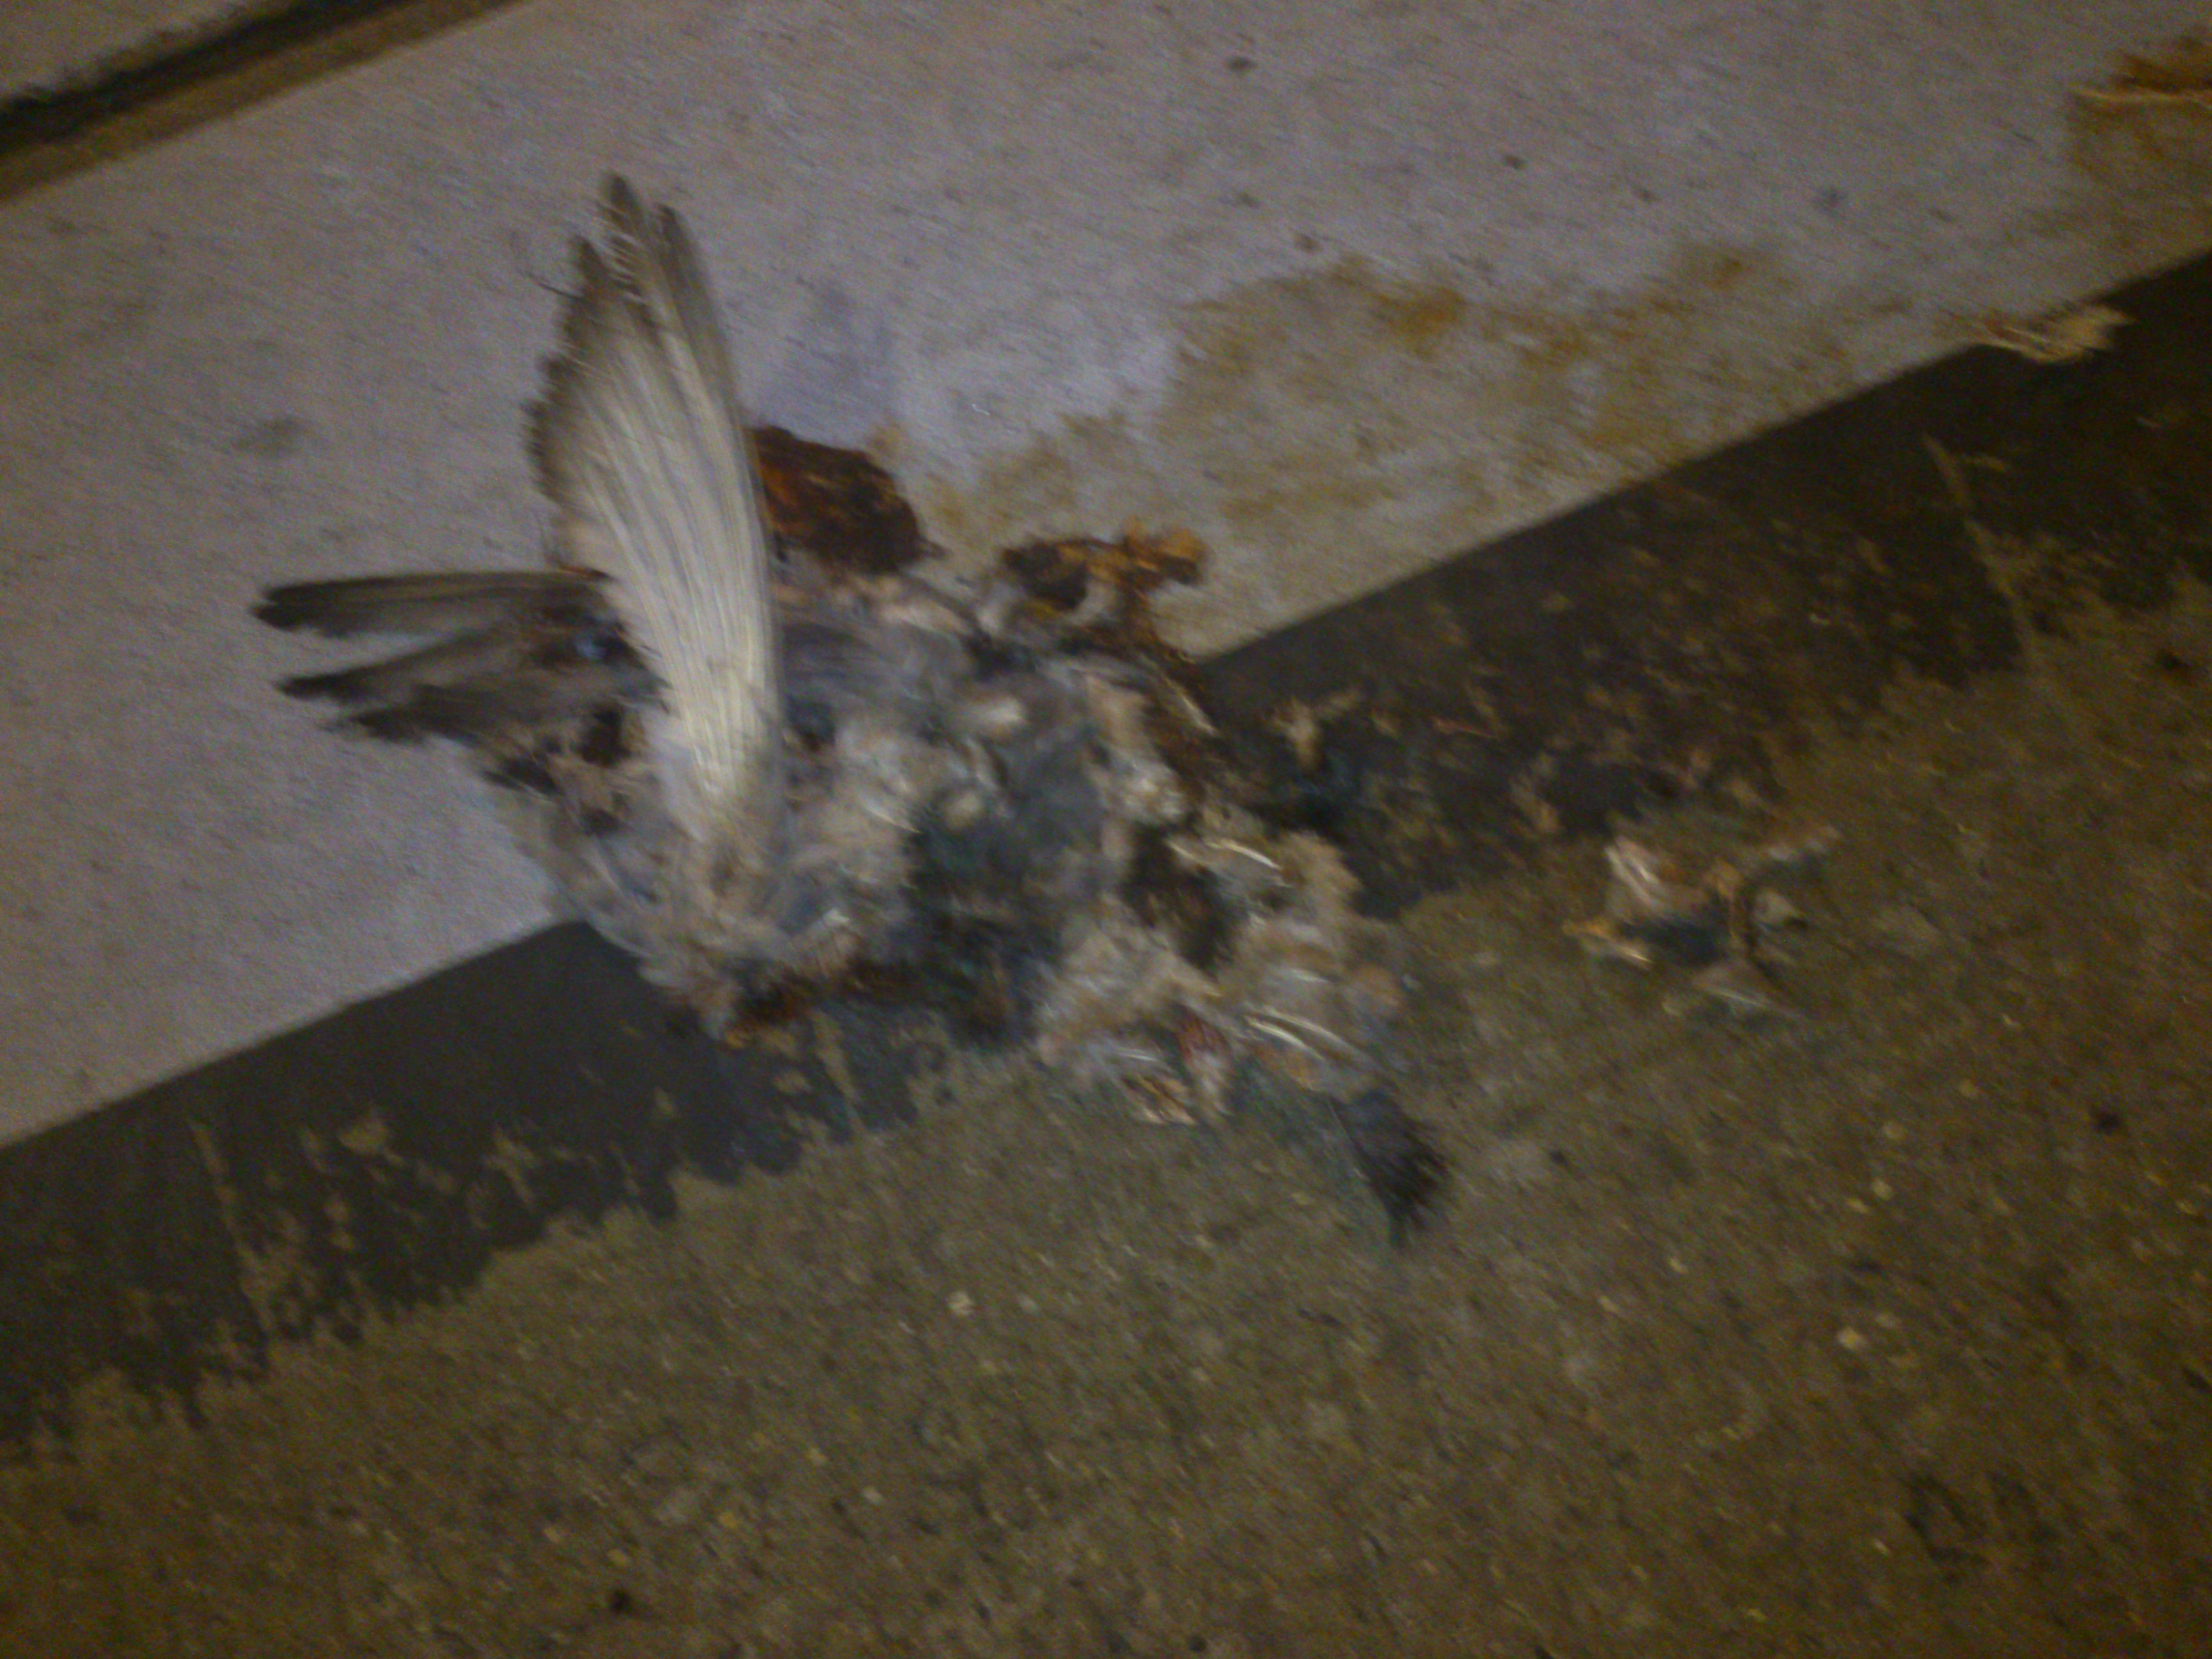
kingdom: Animalia
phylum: Chordata
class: Aves
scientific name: Aves
